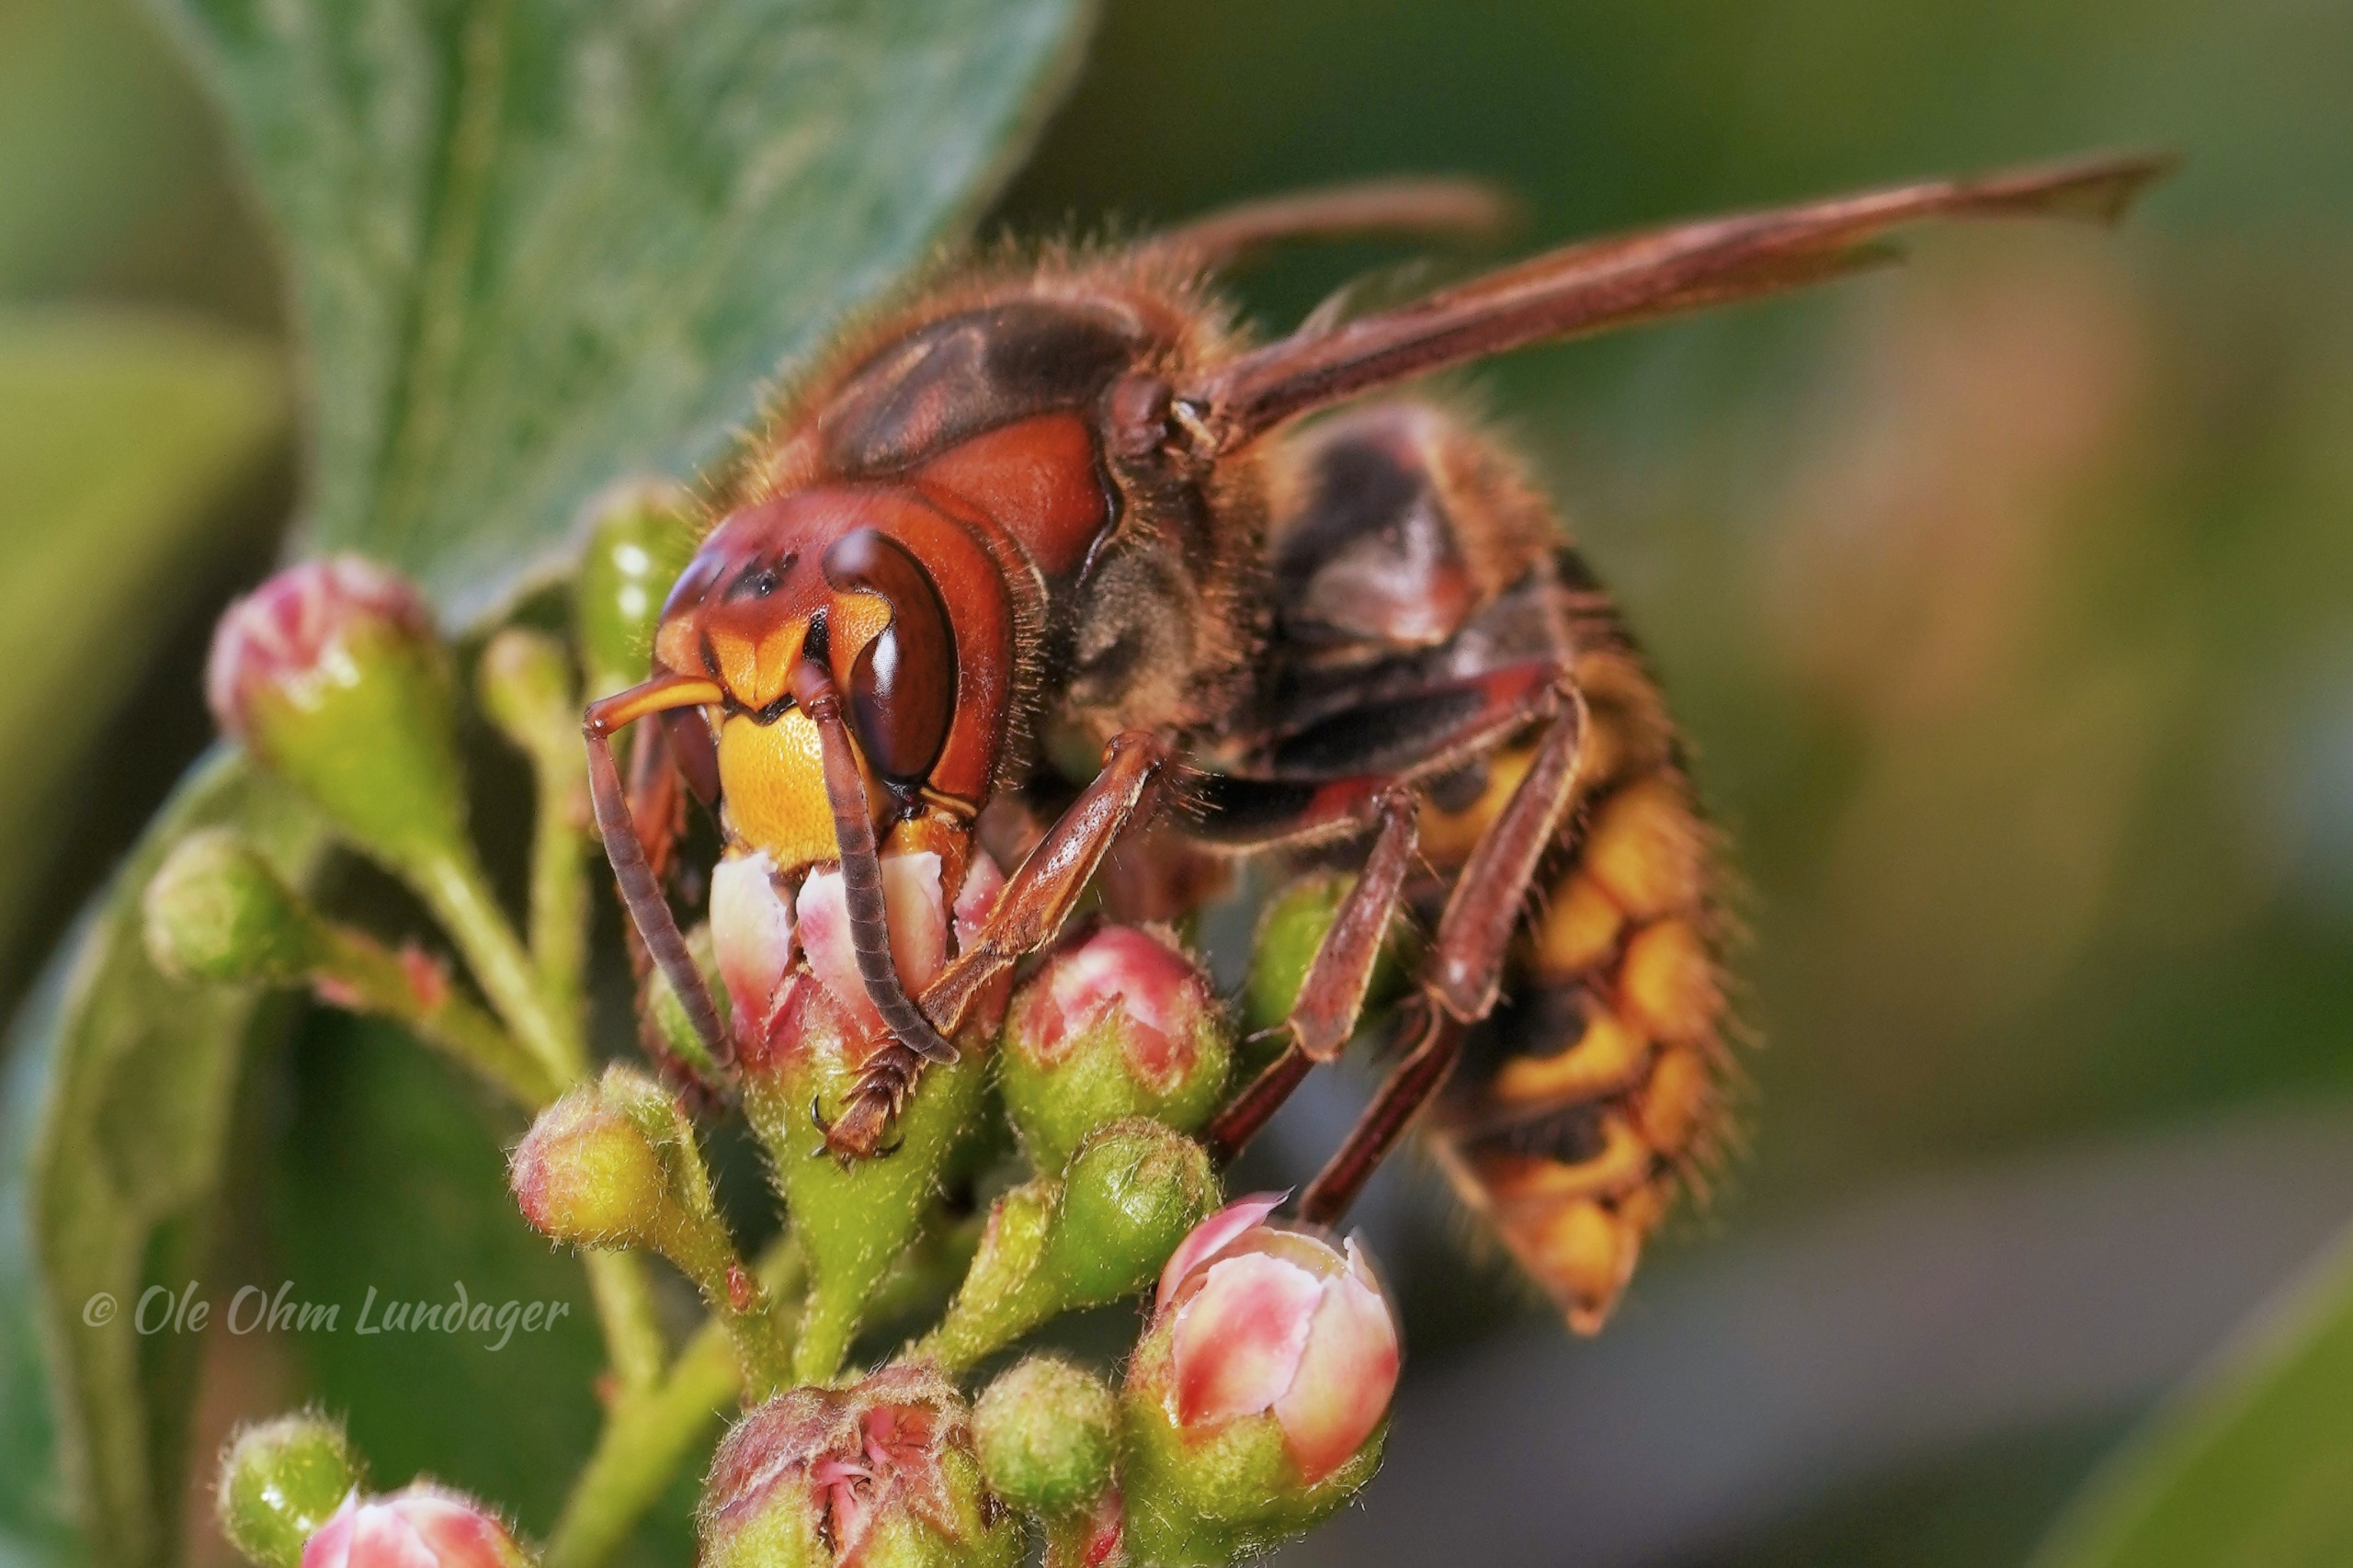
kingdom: Animalia
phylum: Arthropoda
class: Insecta
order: Hymenoptera
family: Vespidae
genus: Vespa
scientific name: Vespa crabro
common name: Stor gedehams
